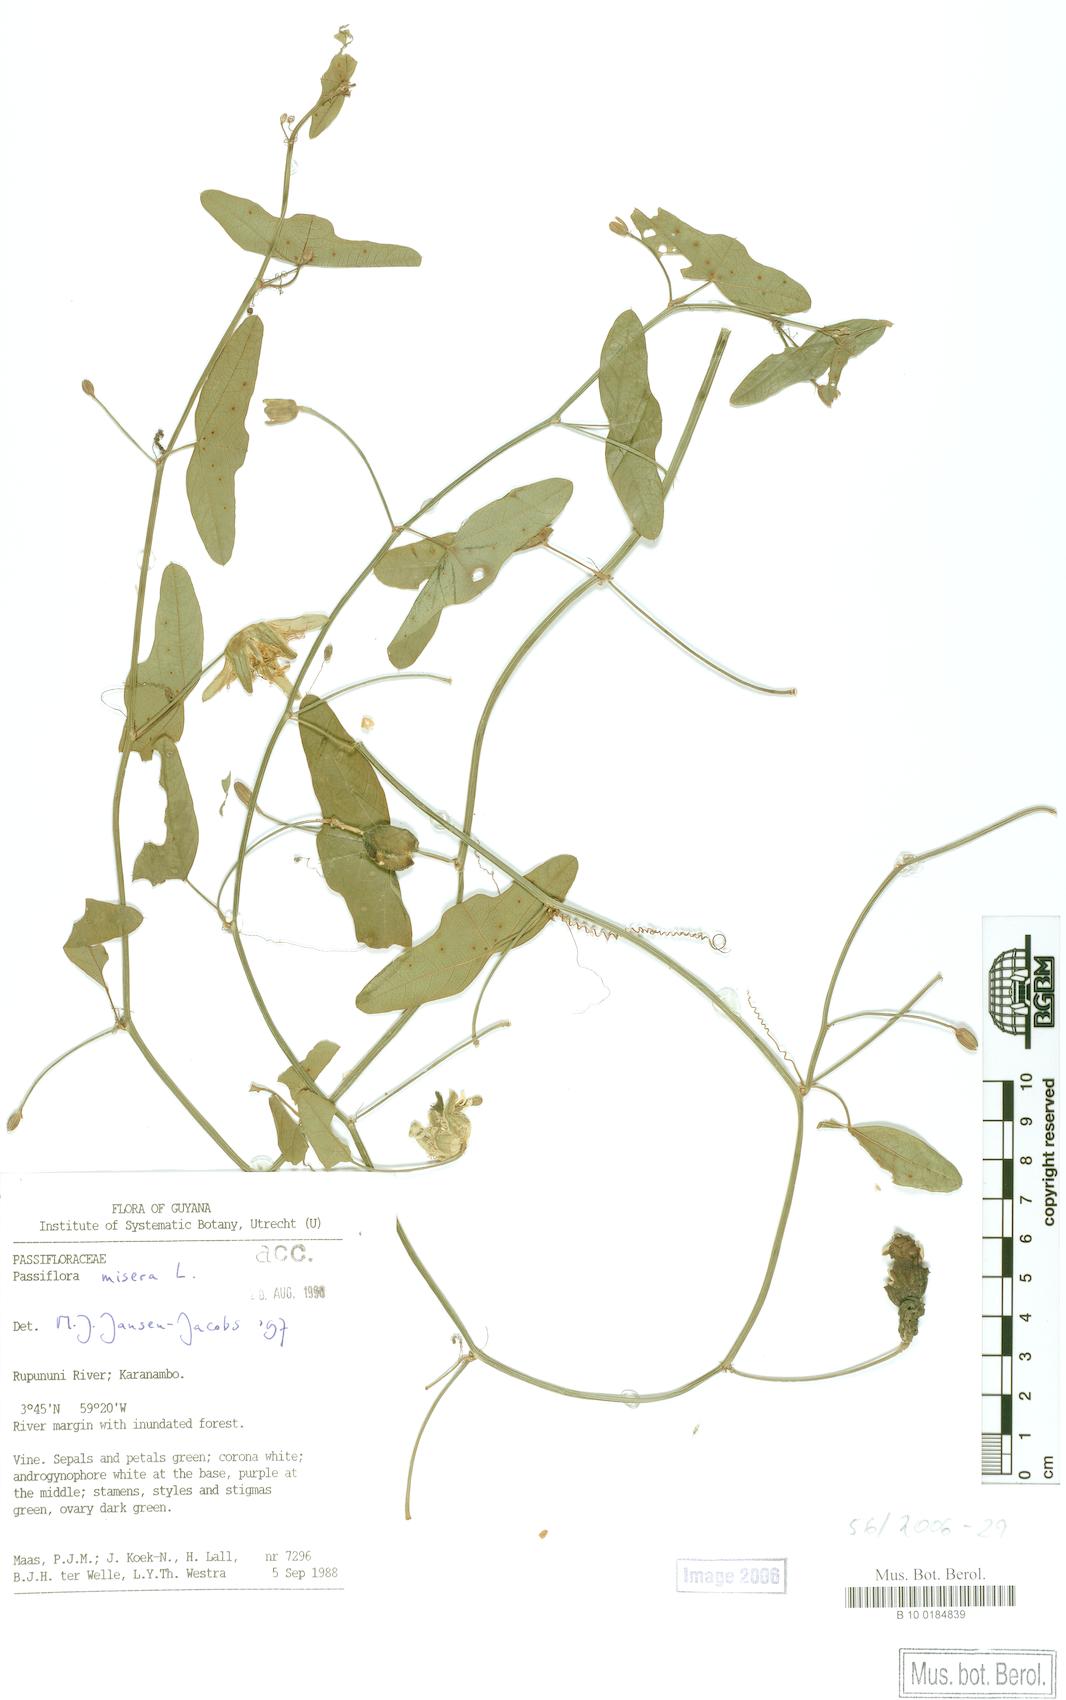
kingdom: Plantae
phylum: Tracheophyta
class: Magnoliopsida
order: Malpighiales
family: Passifloraceae
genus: Passiflora
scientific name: Passiflora amalocarpa
